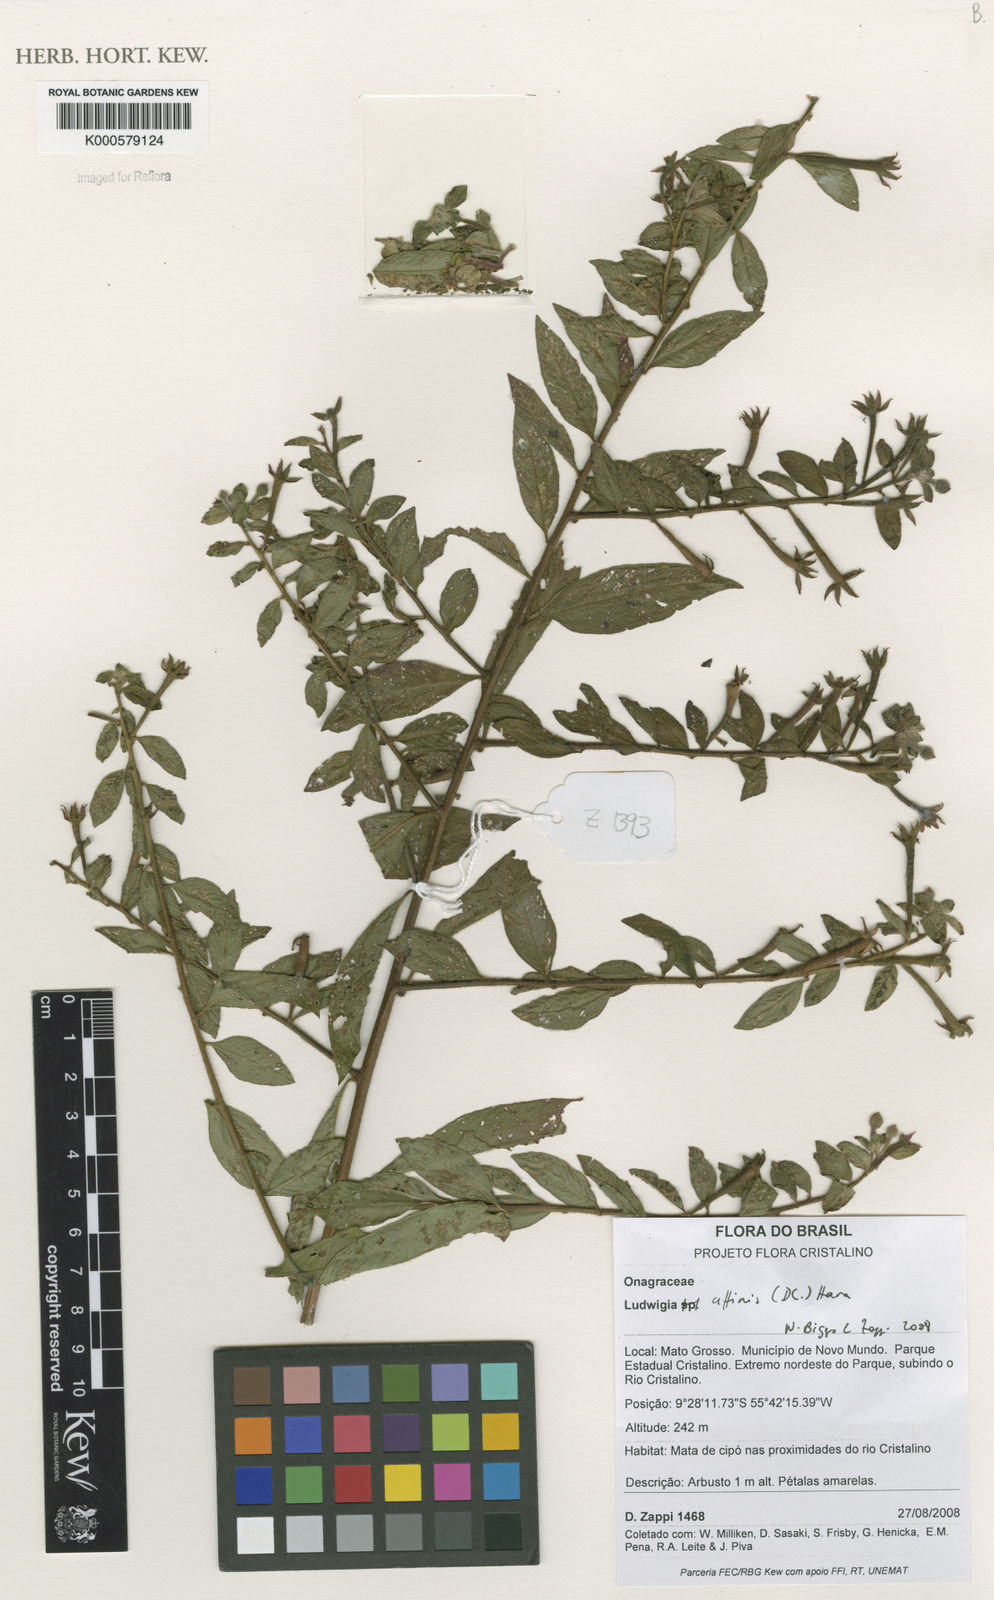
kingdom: Plantae
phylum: Tracheophyta
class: Magnoliopsida
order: Myrtales
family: Onagraceae
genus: Ludwigia
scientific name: Ludwigia affinis
